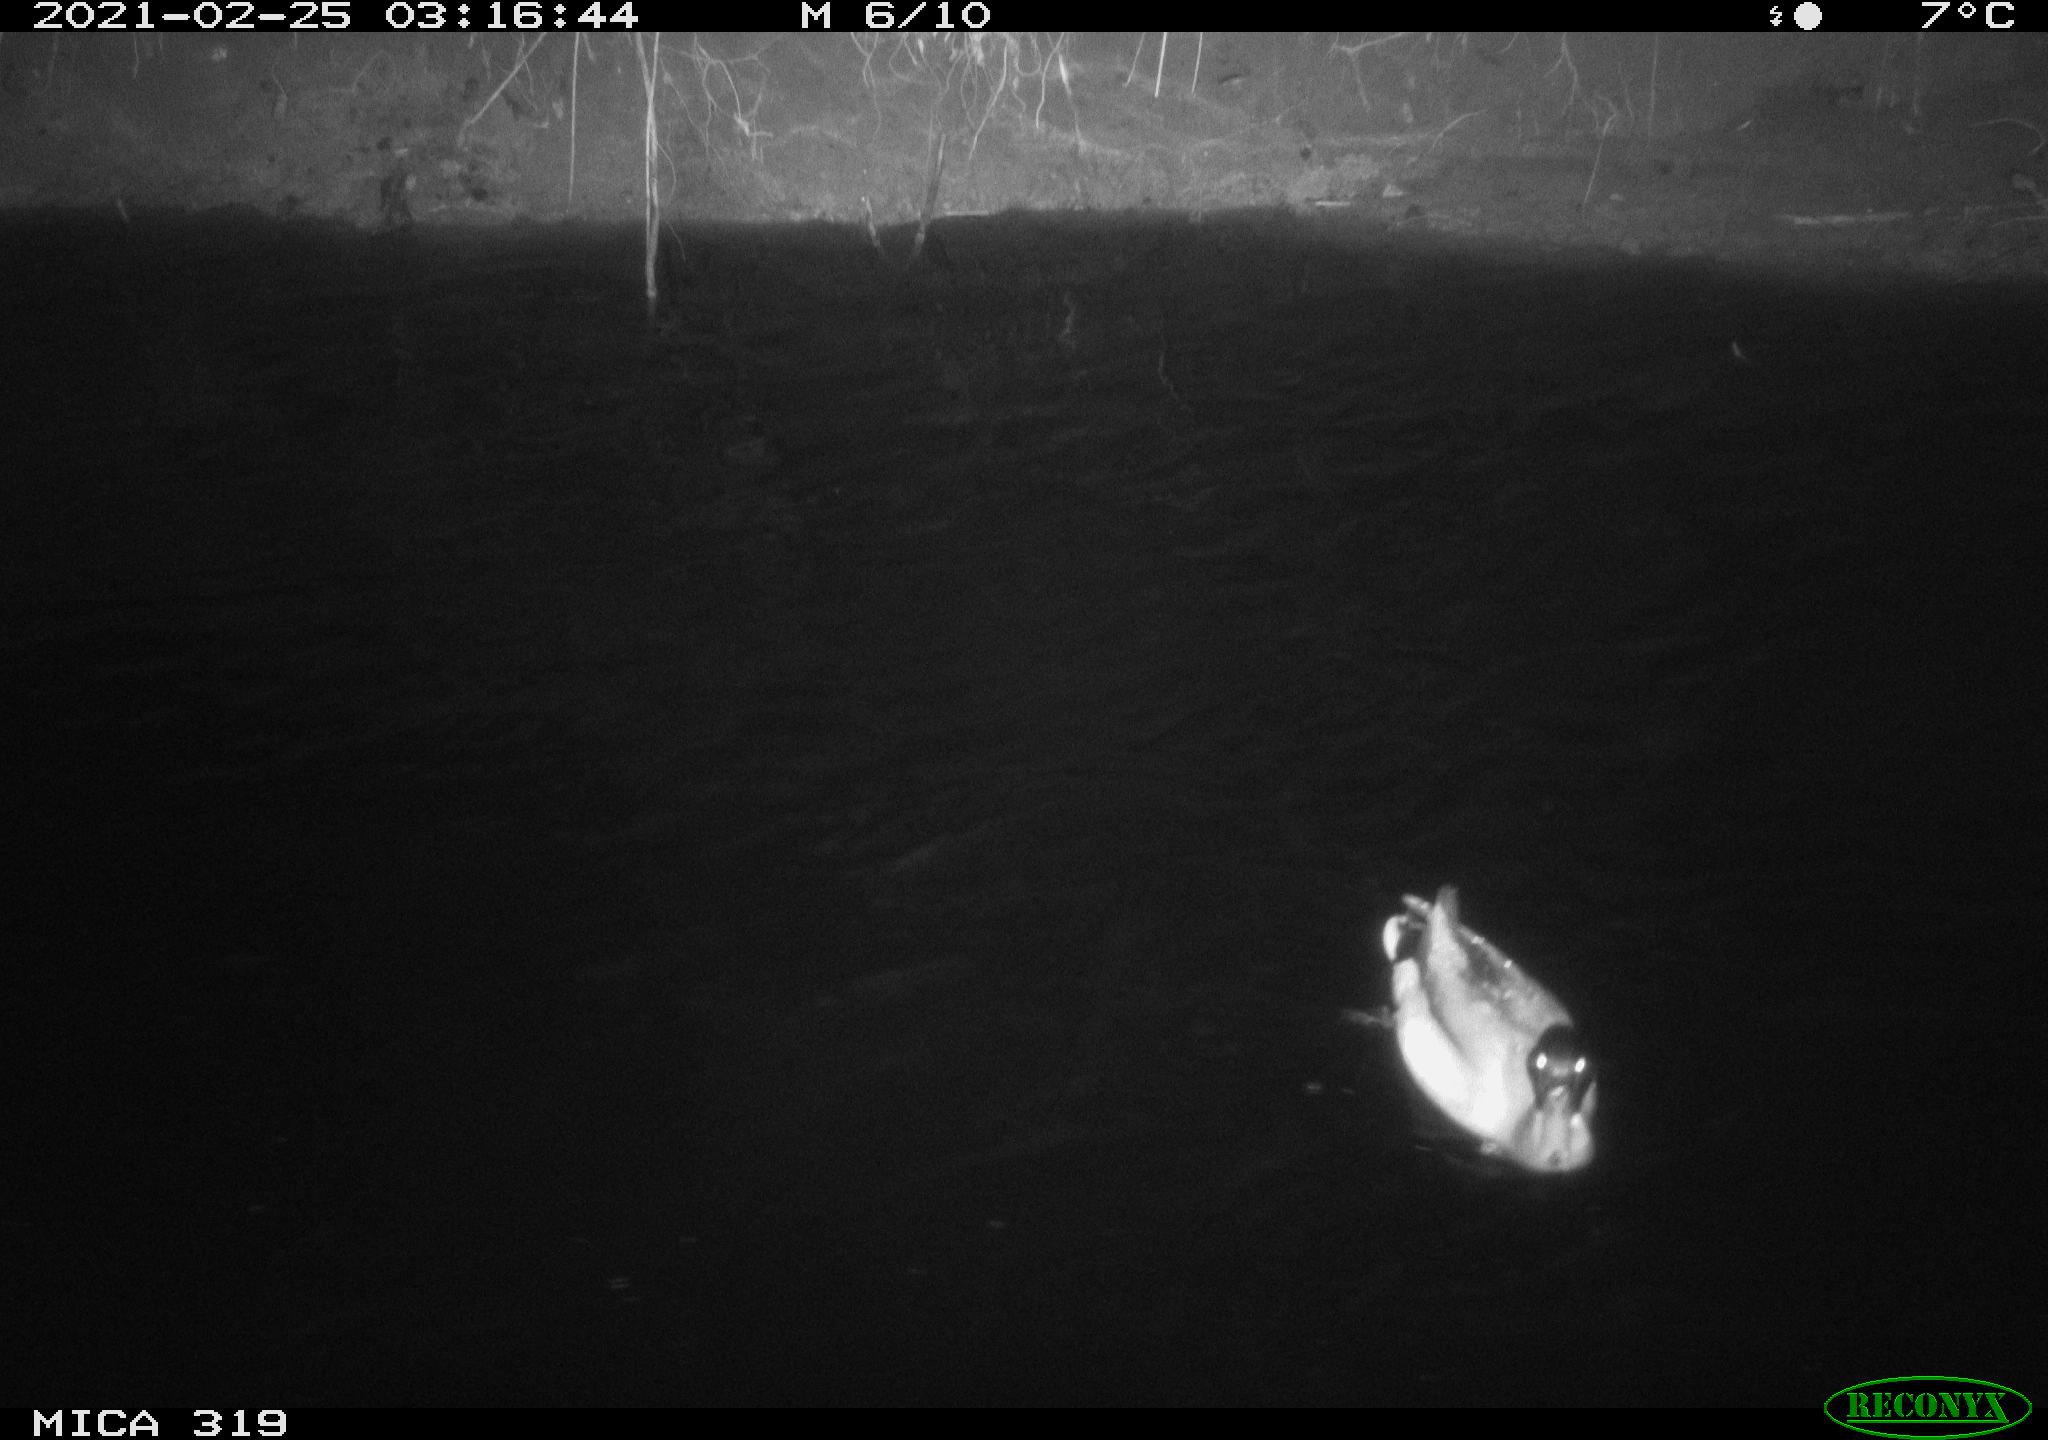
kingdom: Animalia
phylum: Chordata
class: Aves
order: Anseriformes
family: Anatidae
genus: Anas
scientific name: Anas platyrhynchos
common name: Mallard
